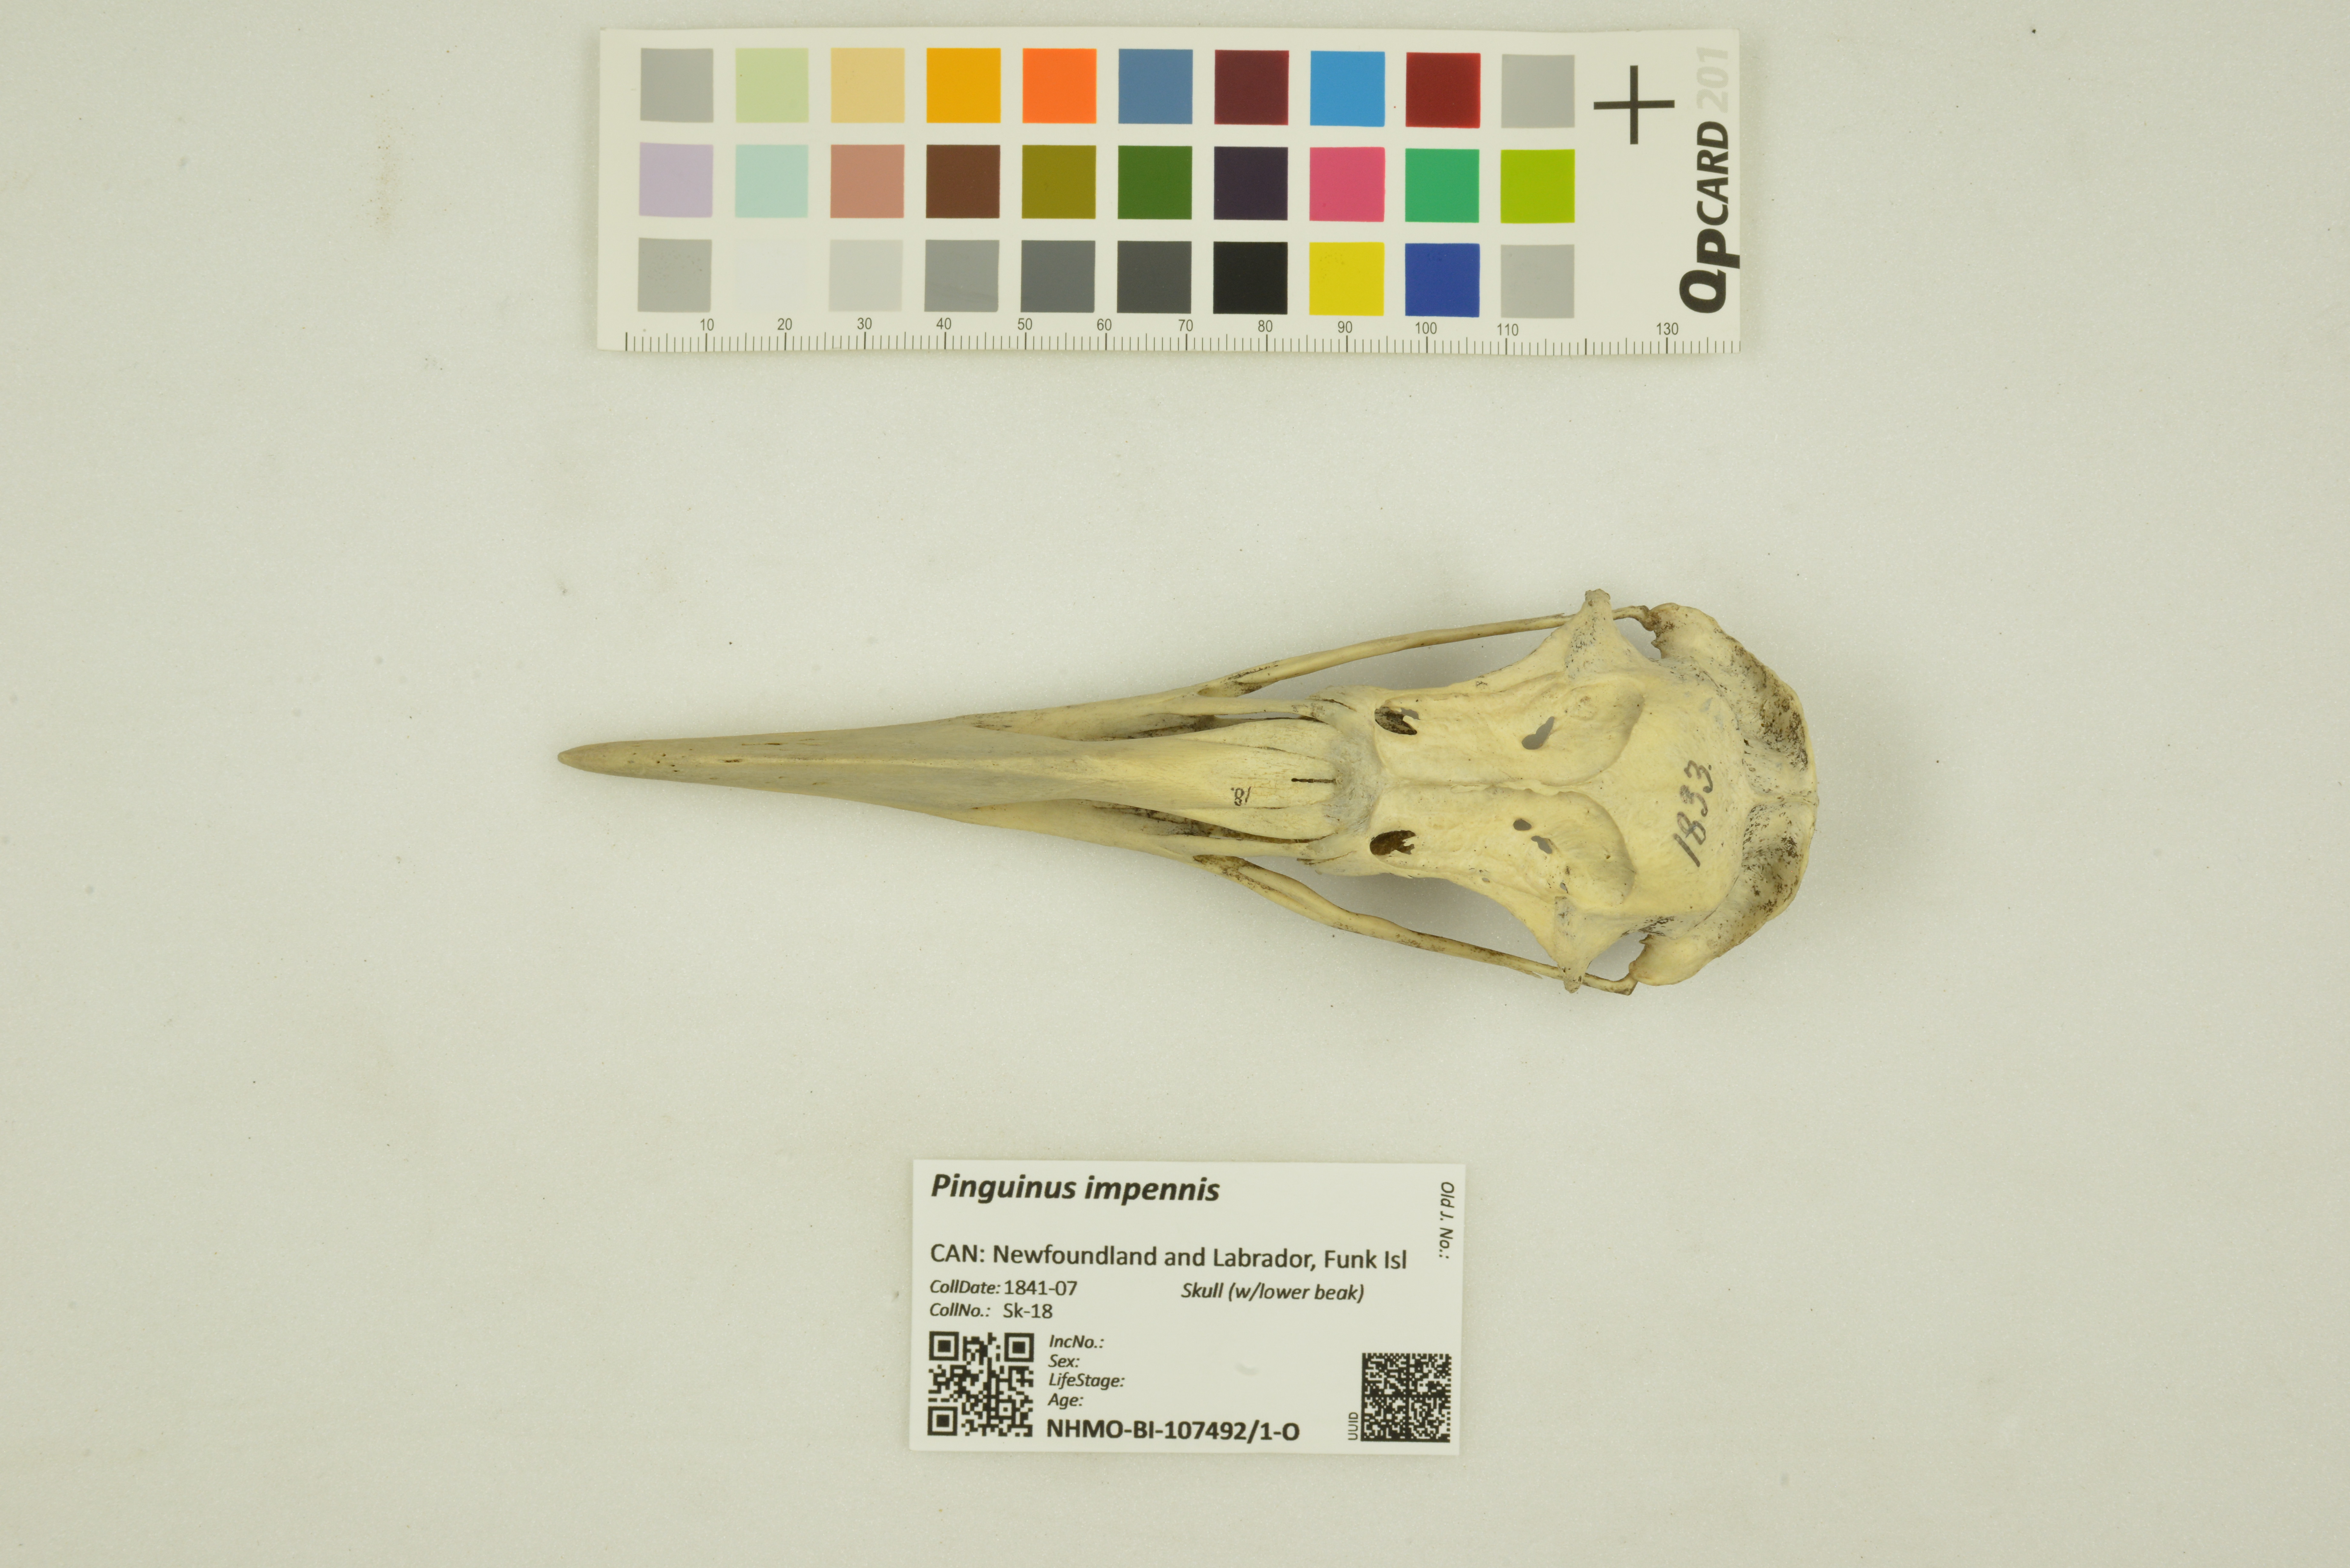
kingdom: Animalia
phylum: Chordata
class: Aves
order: Charadriiformes
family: Alcidae
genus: Pinguinus
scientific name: Pinguinus impennis
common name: Great auk
